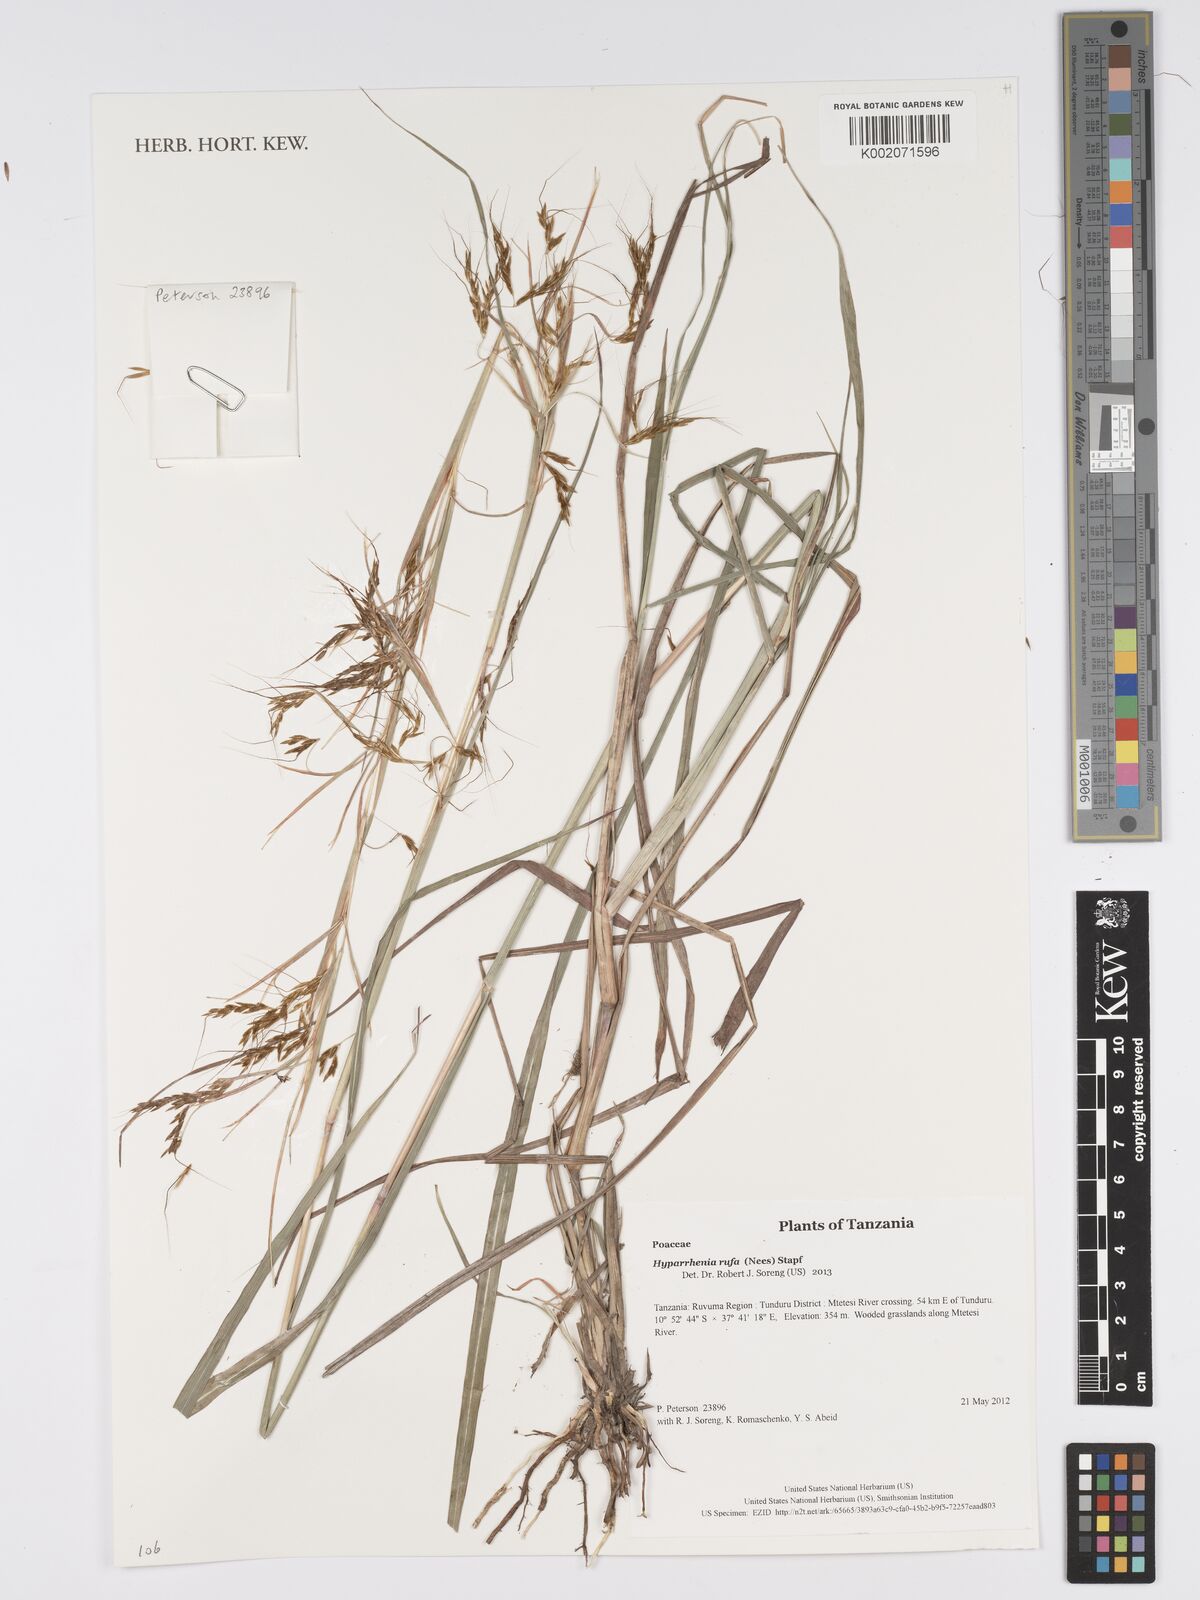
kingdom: Plantae
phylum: Tracheophyta
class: Liliopsida
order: Poales
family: Poaceae
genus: Hyparrhenia
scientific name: Hyparrhenia rufa
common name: Jaraguagrass
